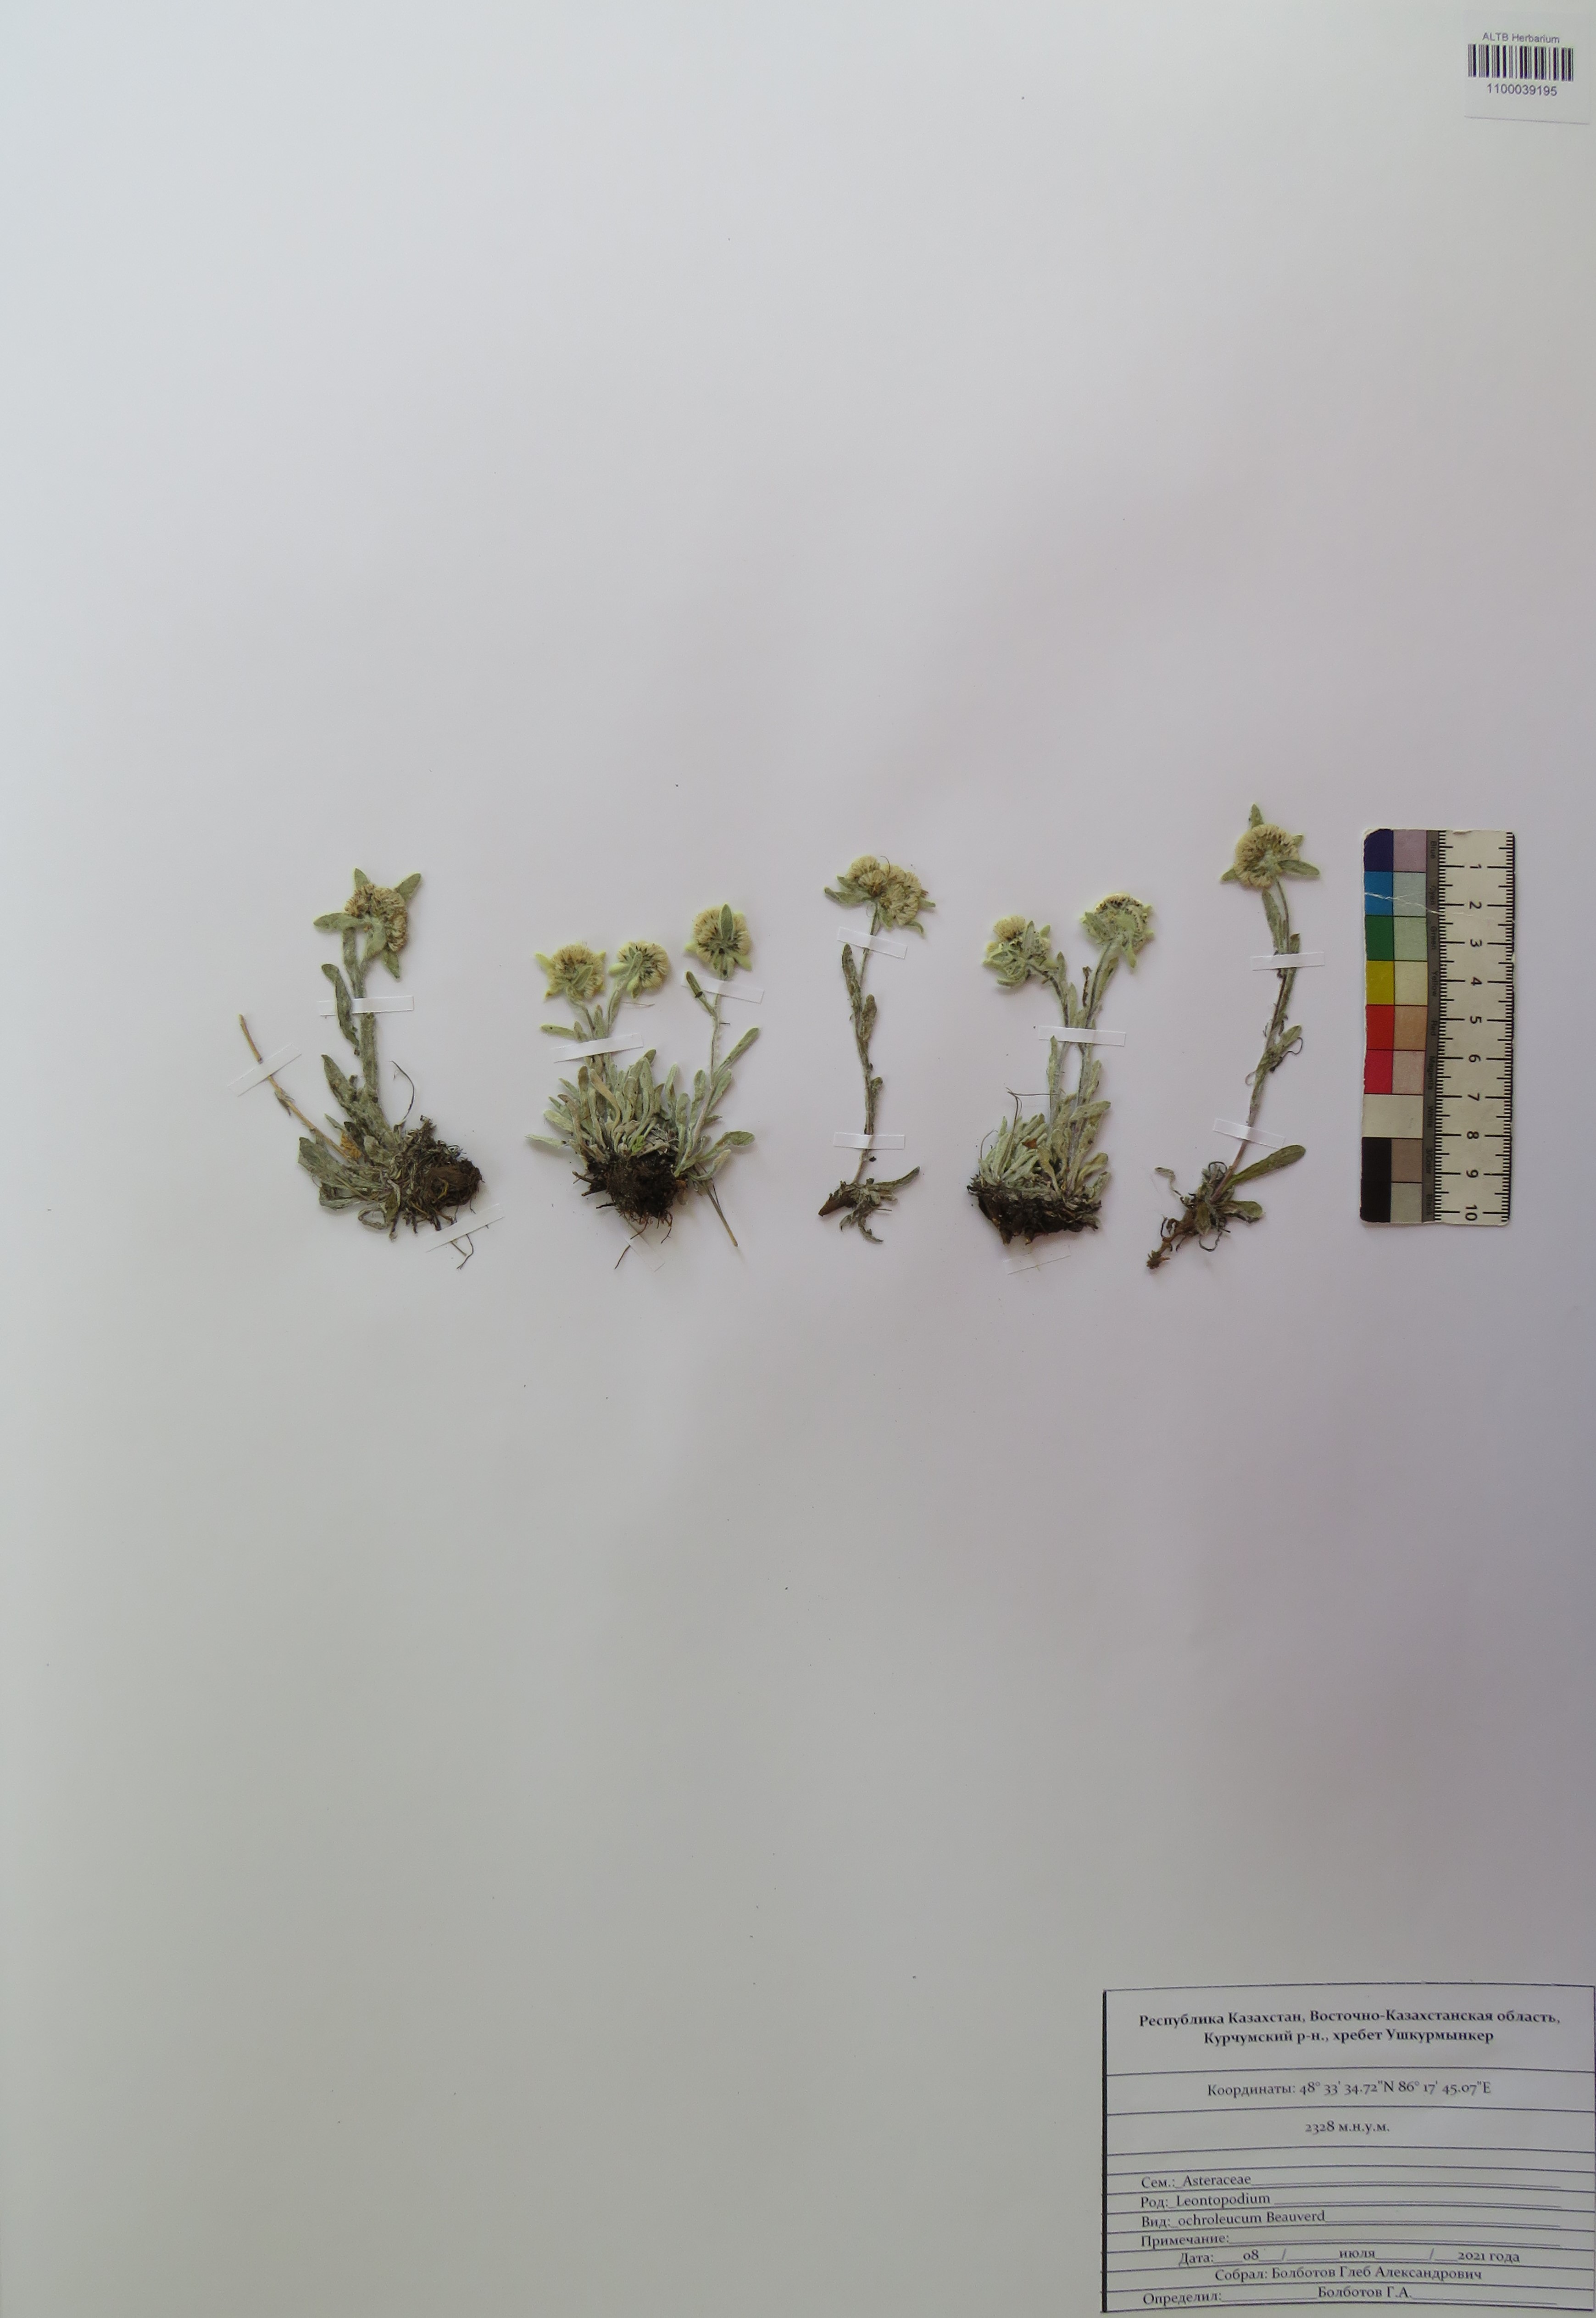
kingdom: Plantae
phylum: Tracheophyta
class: Magnoliopsida
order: Asterales
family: Asteraceae
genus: Leontopodium
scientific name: Leontopodium leontopodinum
